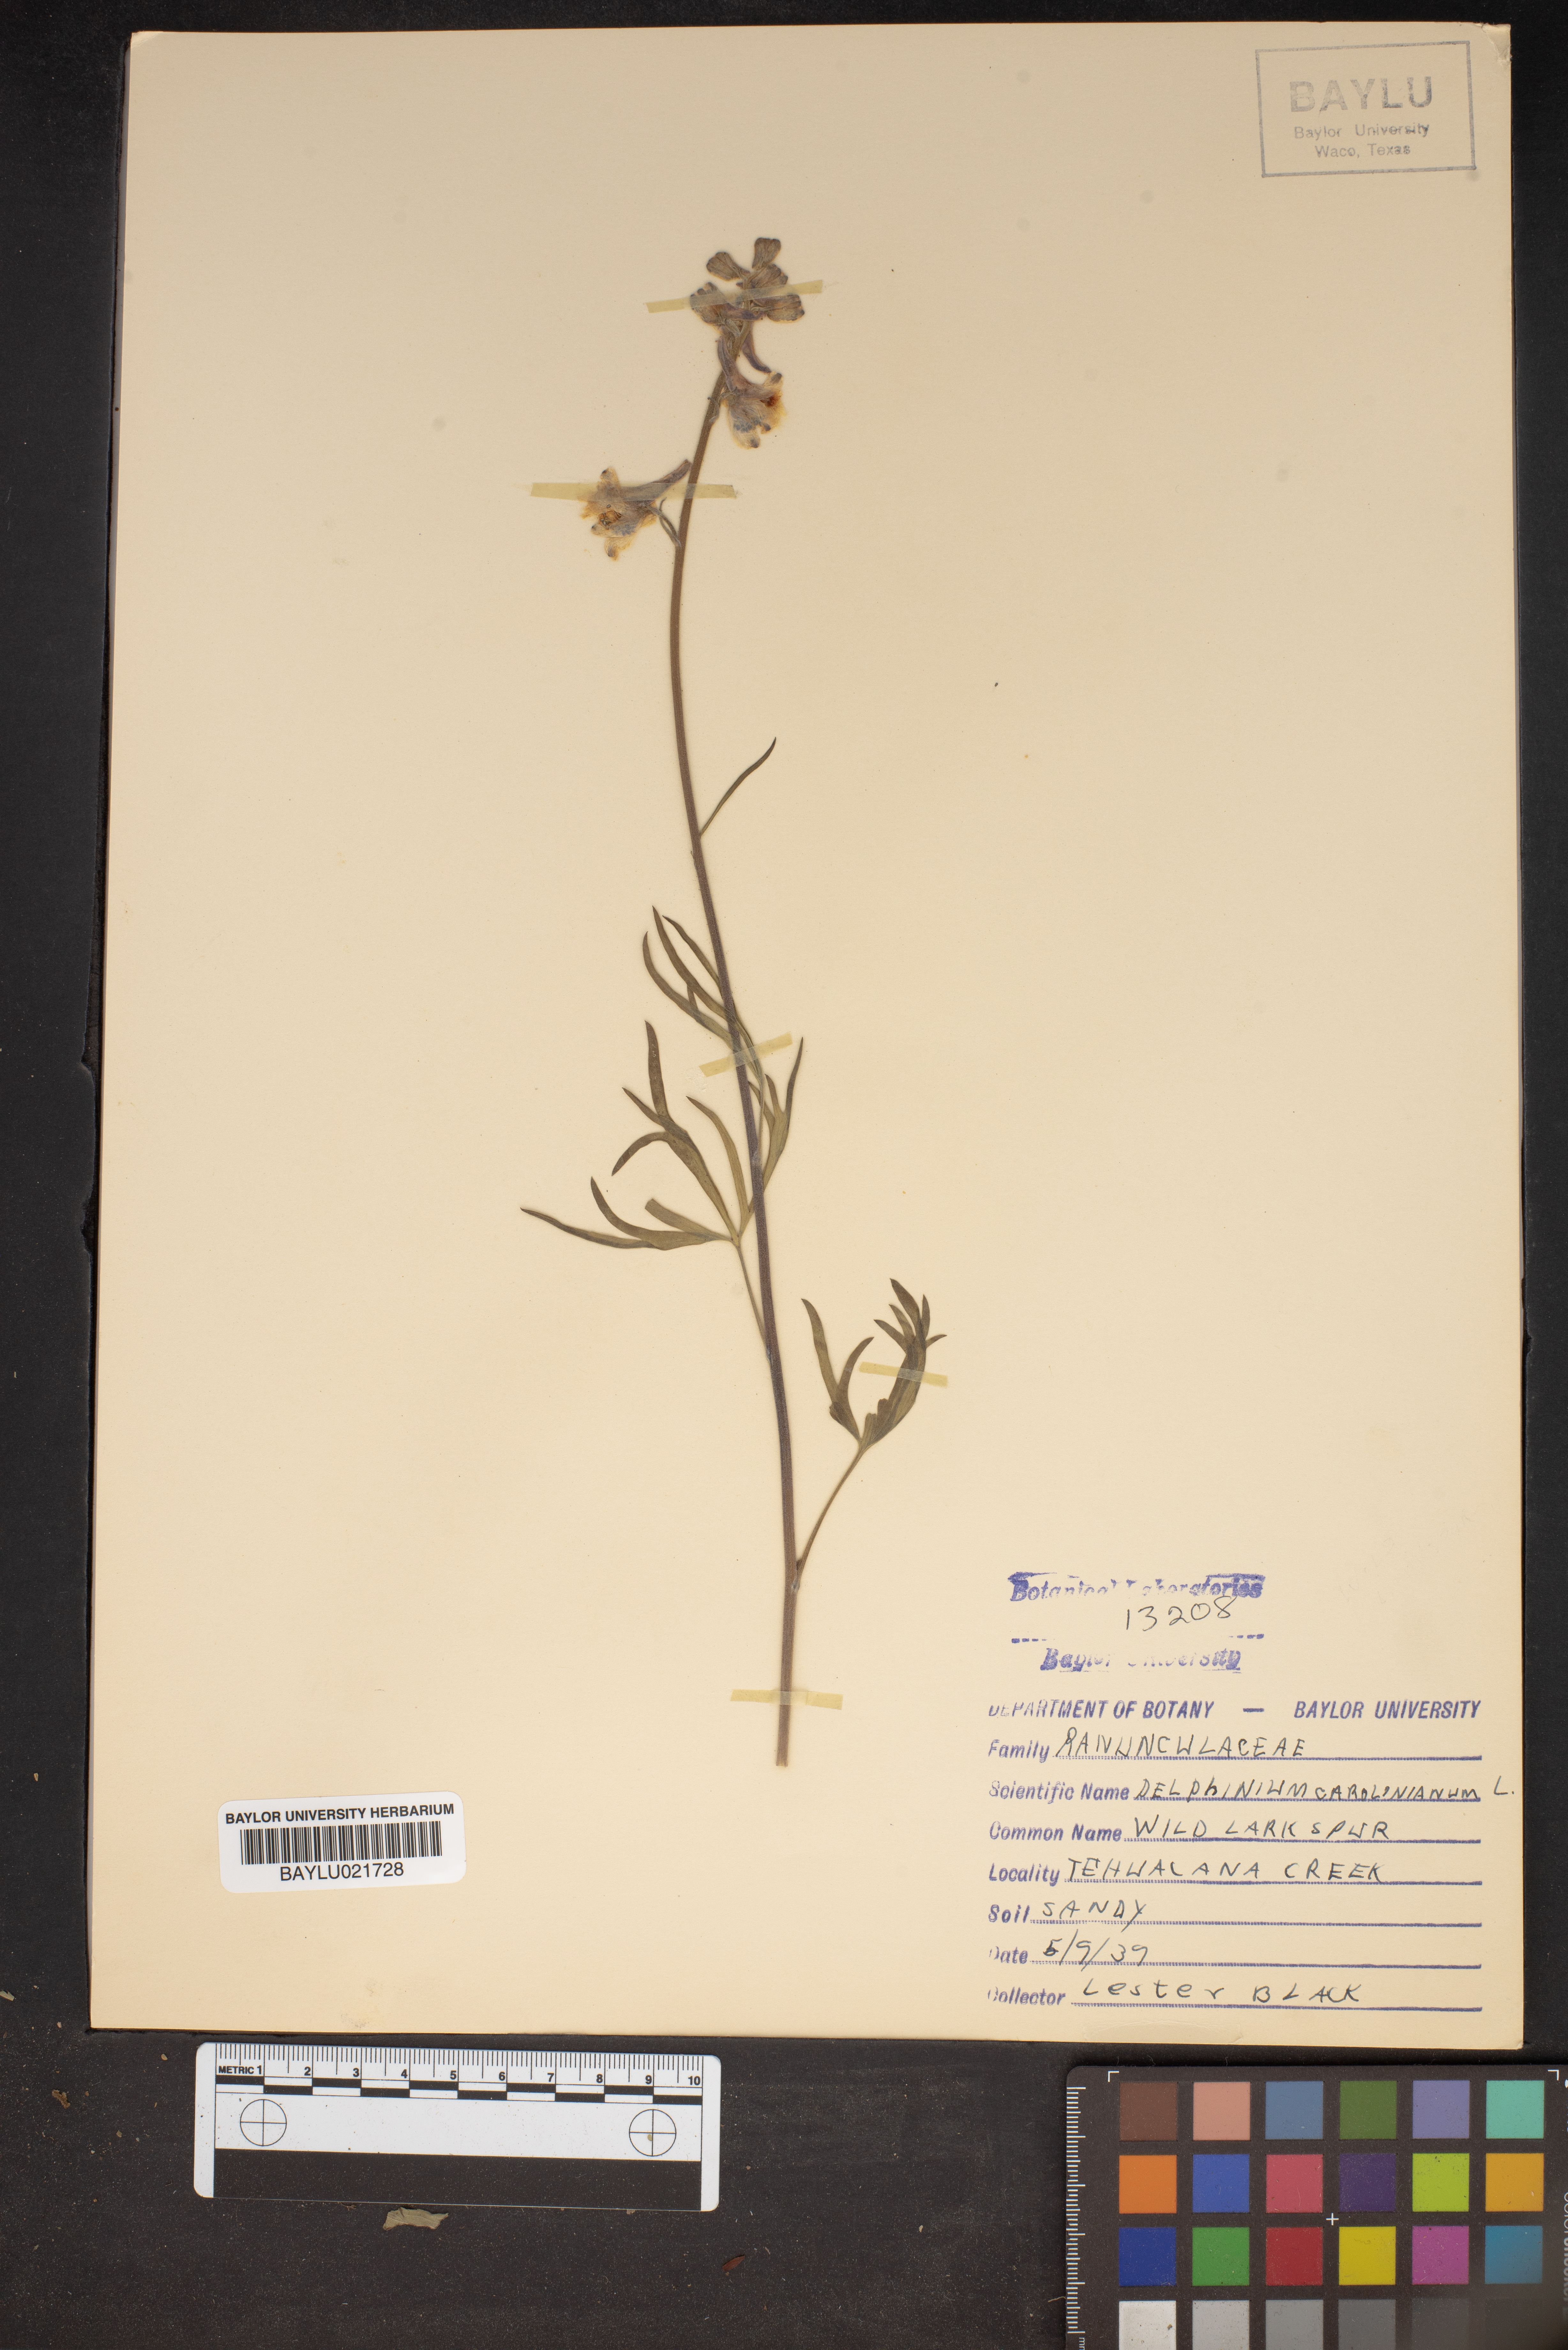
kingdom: Plantae
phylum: Tracheophyta
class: Magnoliopsida
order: Ranunculales
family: Ranunculaceae
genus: Delphinium
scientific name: Delphinium carolinianum
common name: Carolina larkspur
